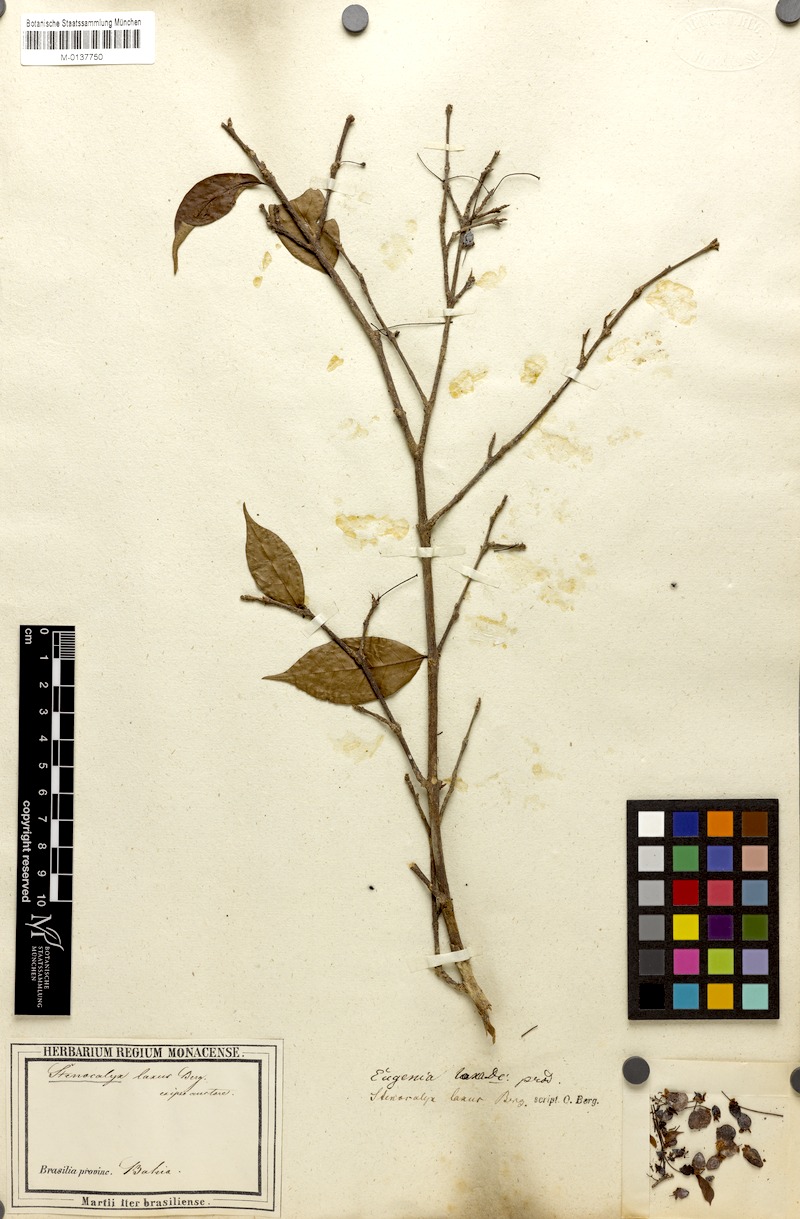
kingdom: Plantae
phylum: Tracheophyta
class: Magnoliopsida
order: Myrtales
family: Myrtaceae
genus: Eugenia
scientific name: Eugenia laxa
